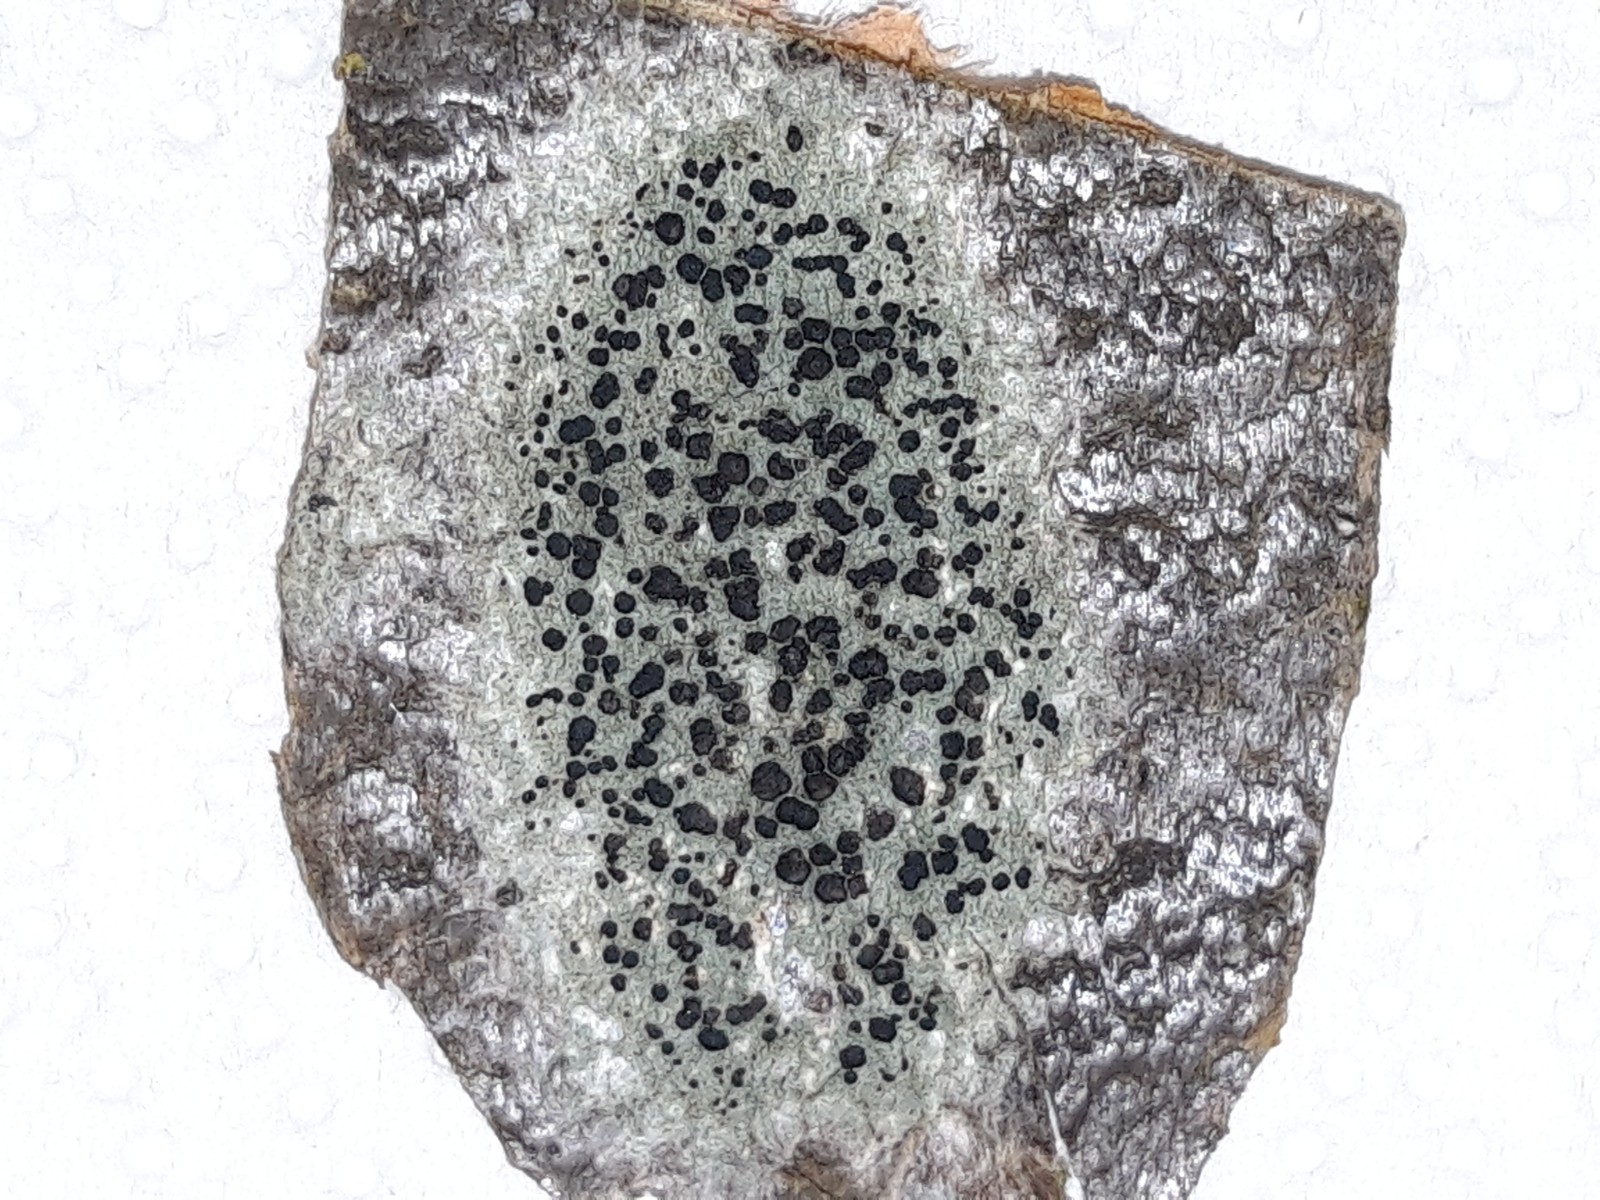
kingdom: Fungi
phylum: Ascomycota
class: Lecanoromycetes
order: Lecanorales
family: Lecanoraceae
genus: Lecidella
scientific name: Lecidella euphorea
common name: vortet skivelav
